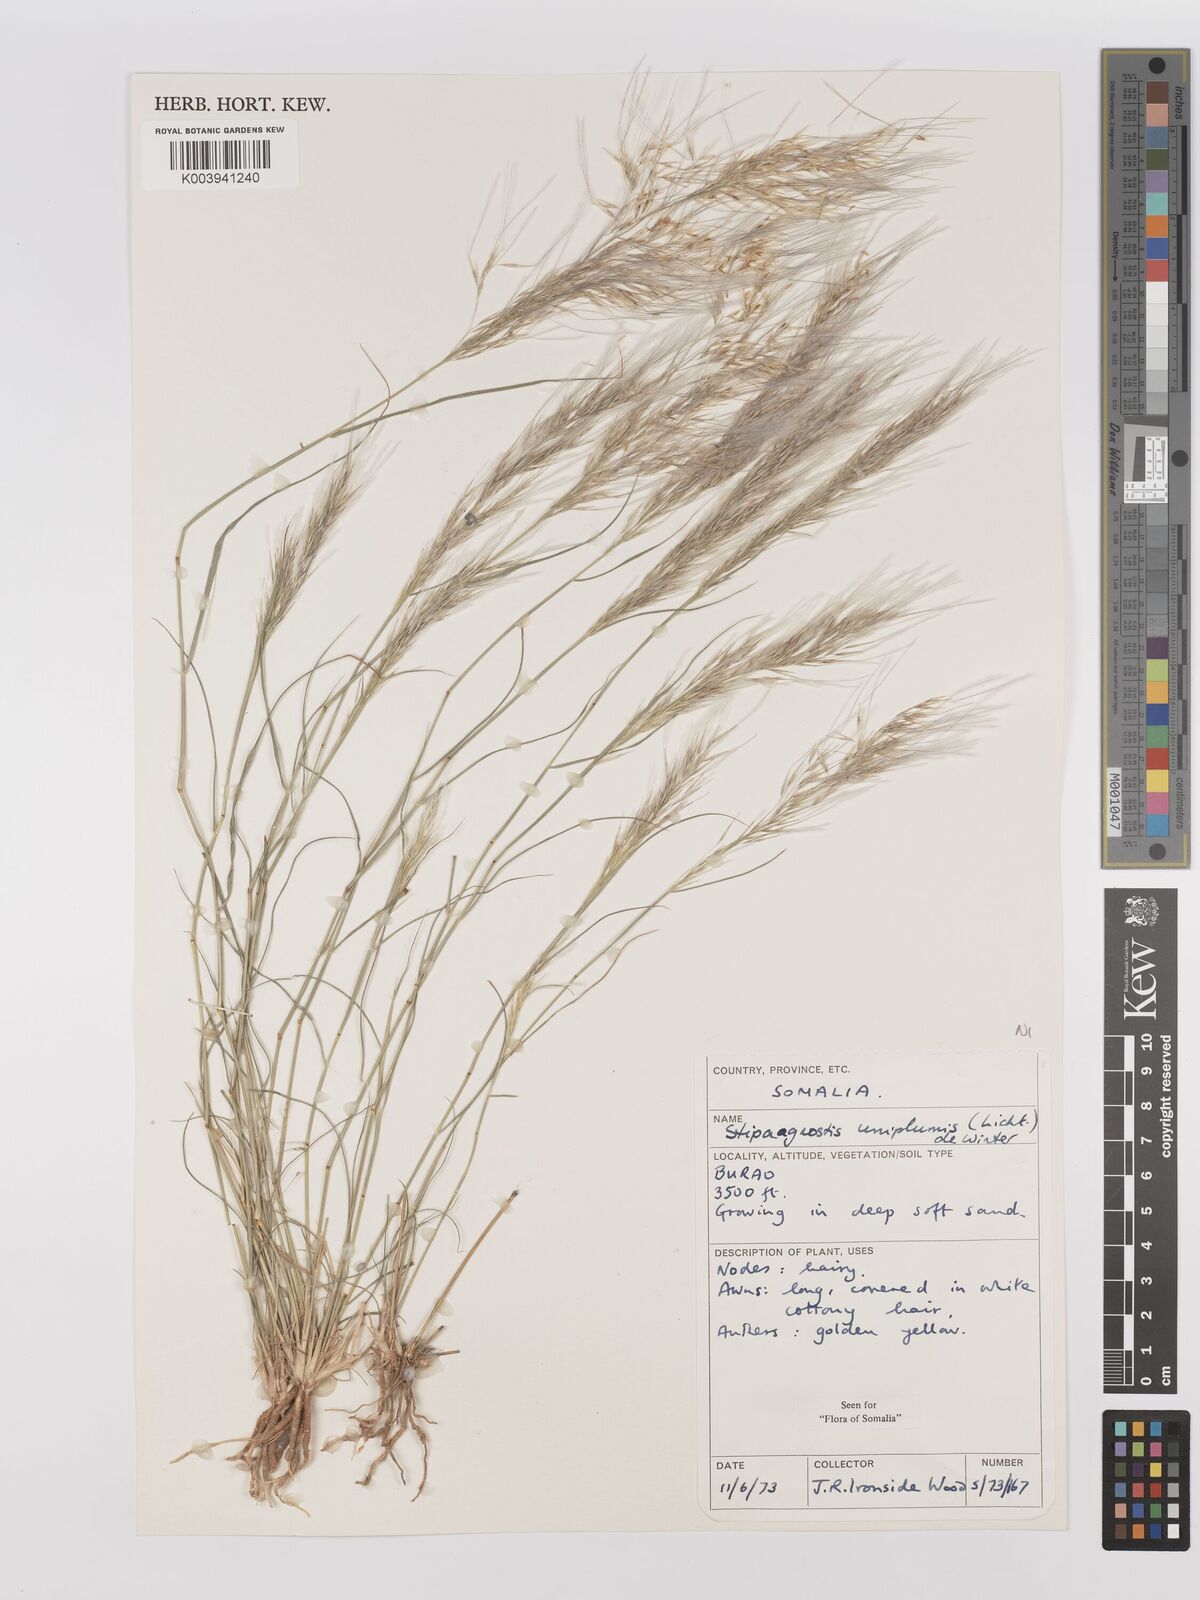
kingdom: Plantae
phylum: Tracheophyta
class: Liliopsida
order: Poales
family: Poaceae
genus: Stipagrostis
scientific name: Stipagrostis uniplumis
